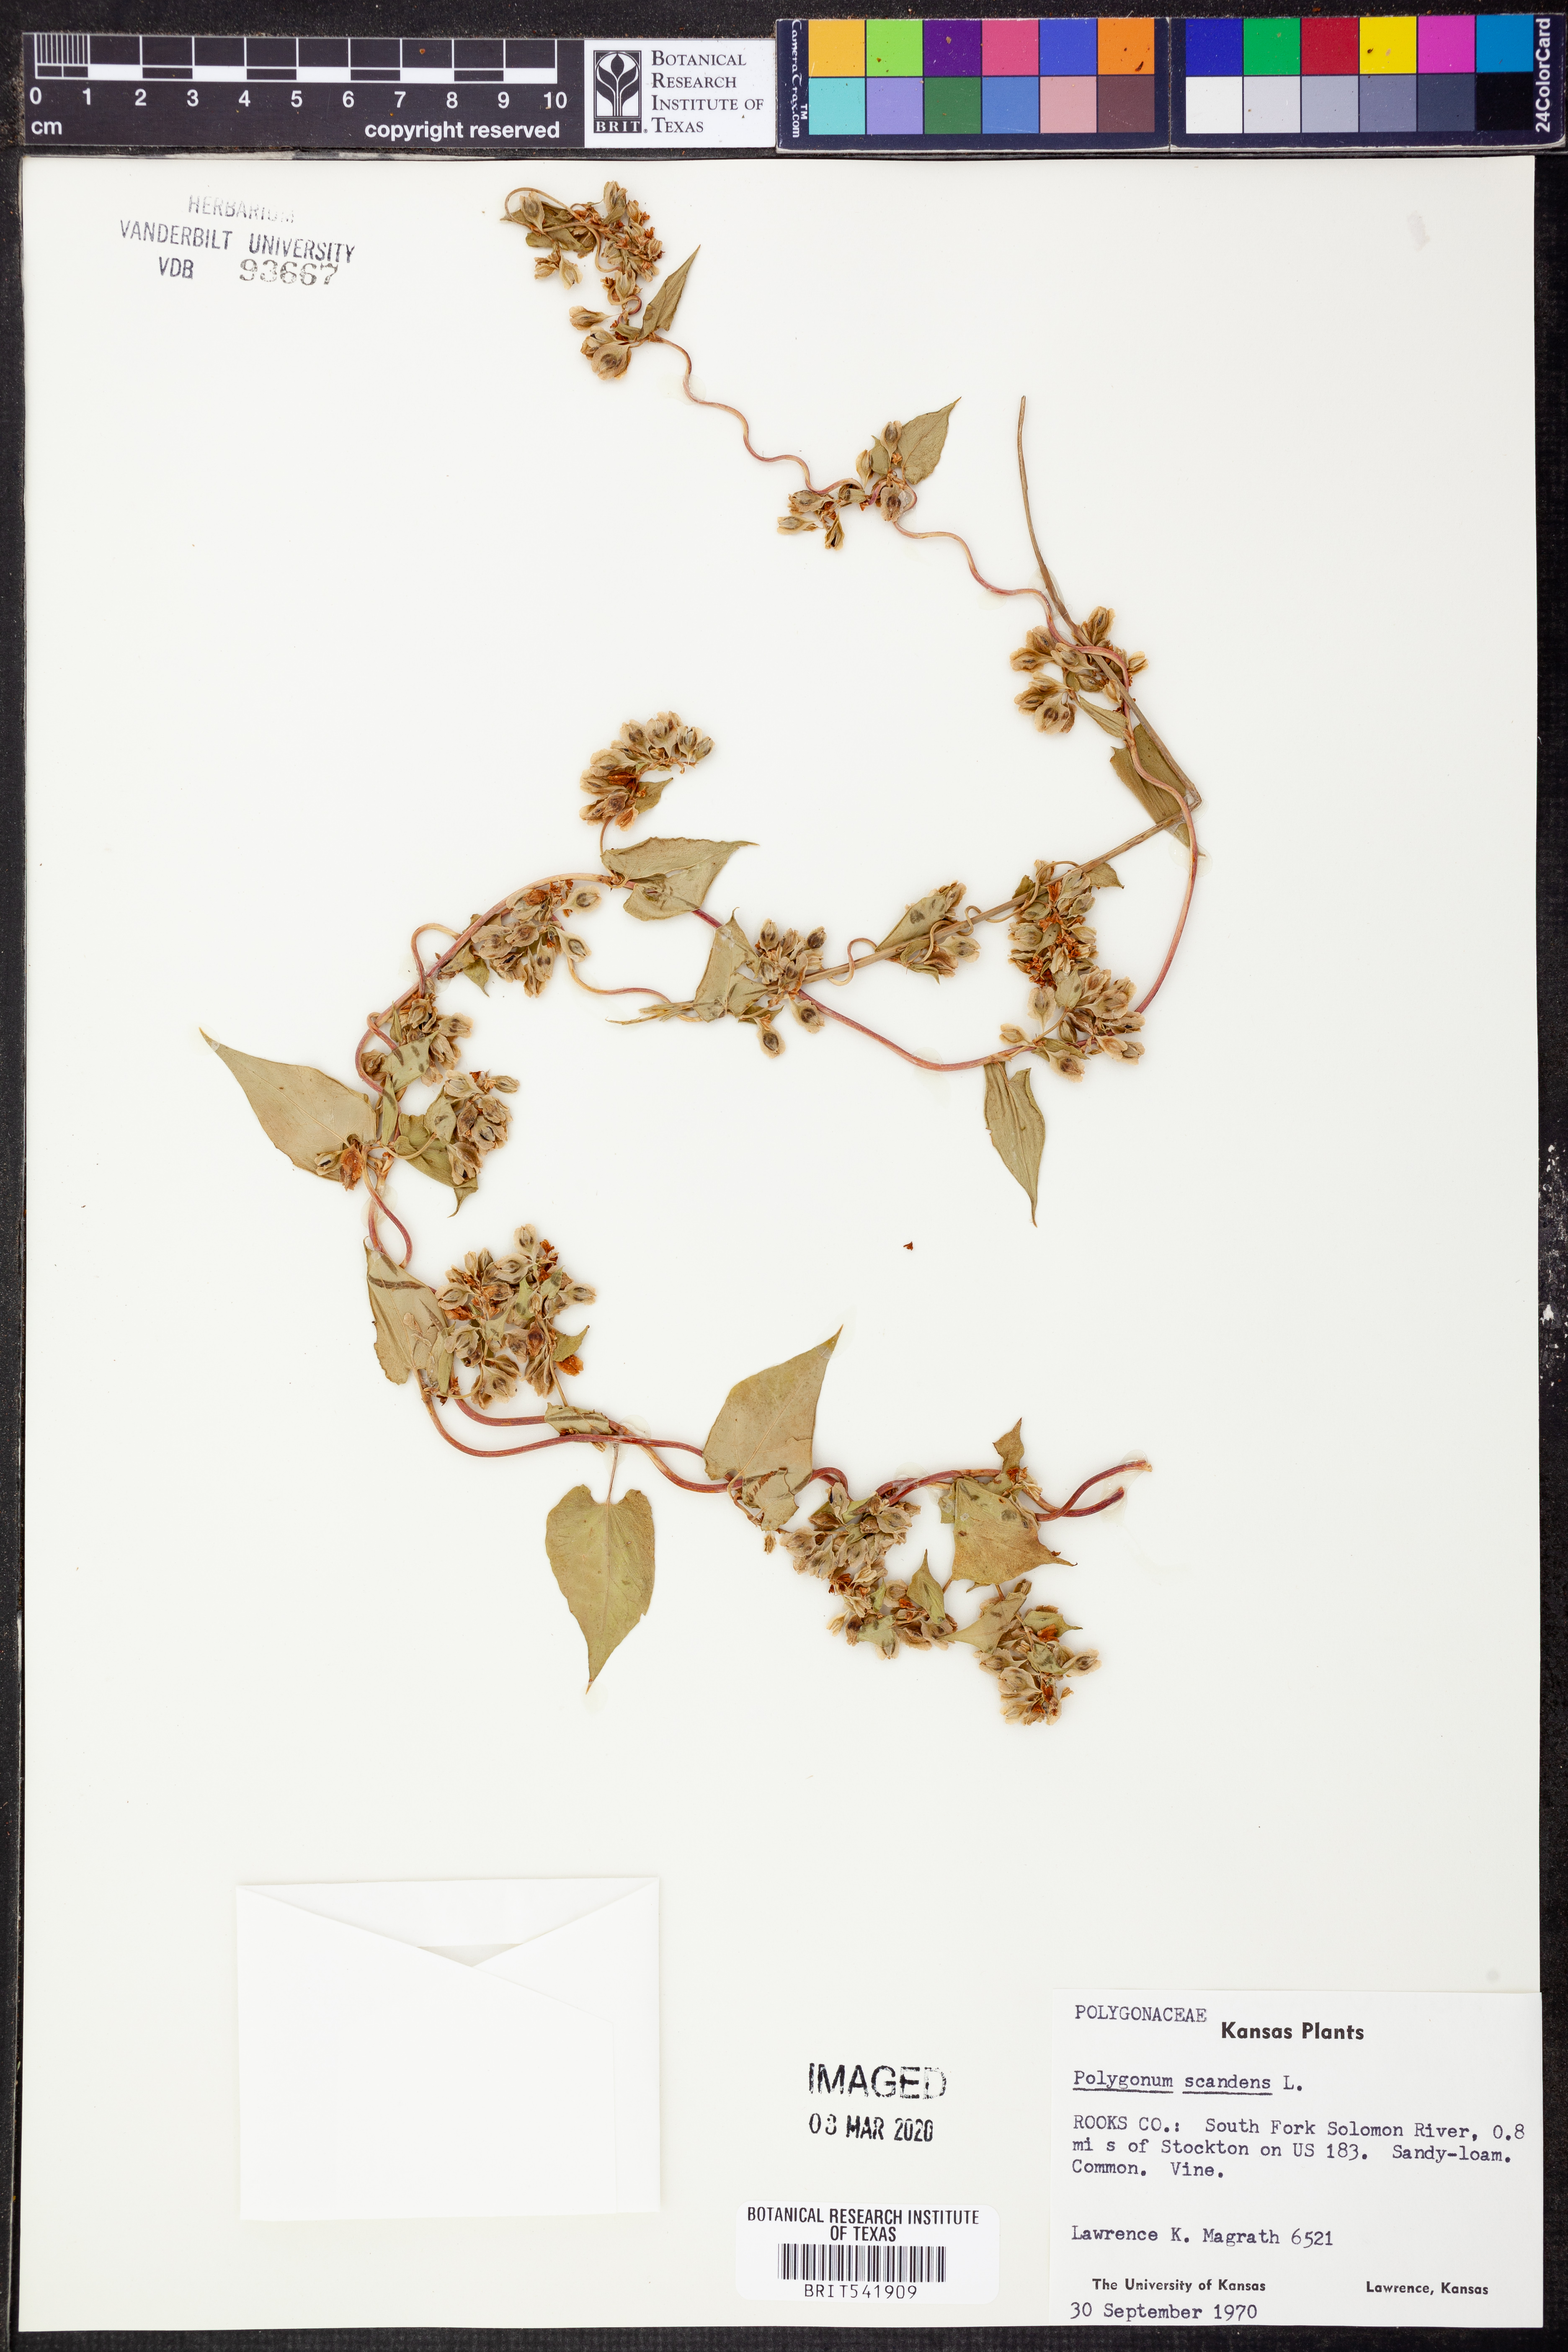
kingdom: Plantae
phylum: Tracheophyta
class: Magnoliopsida
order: Caryophyllales
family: Polygonaceae
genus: Fallopia
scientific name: Fallopia scandens
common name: Climbing false buckwheat
